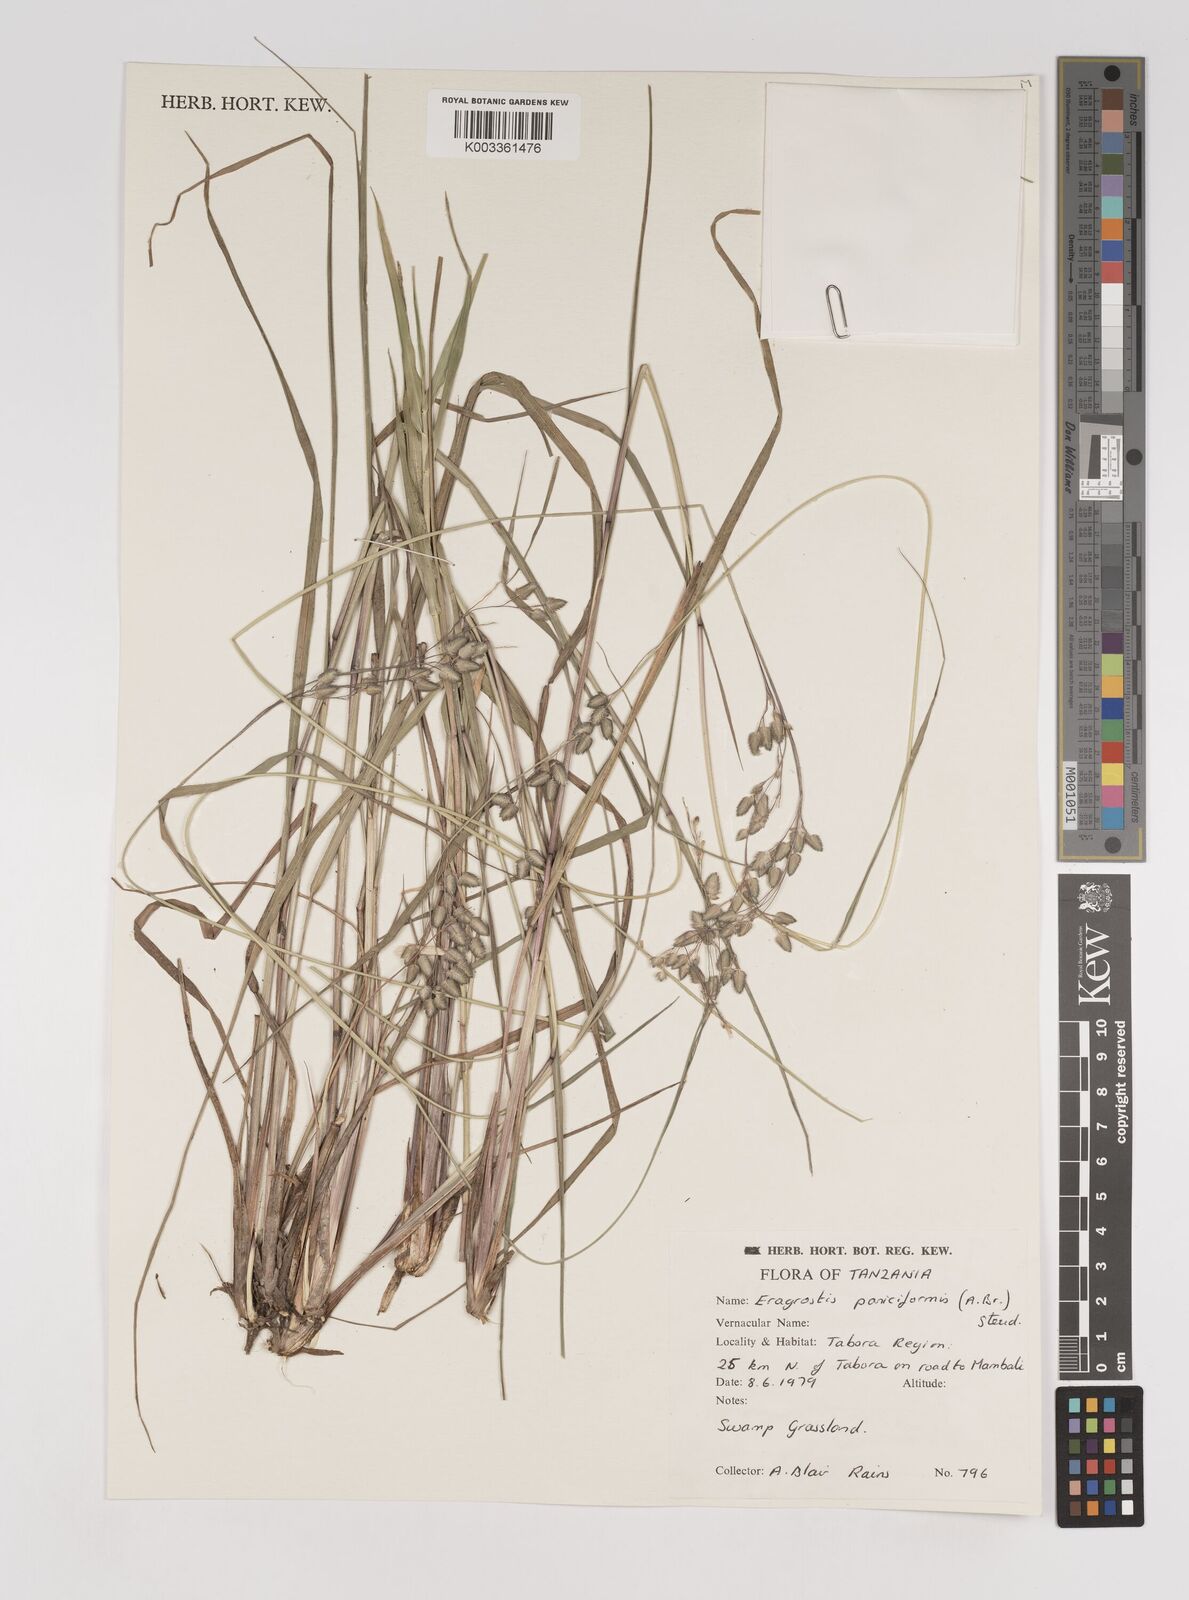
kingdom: Plantae
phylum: Tracheophyta
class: Liliopsida
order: Poales
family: Poaceae
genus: Eragrostis
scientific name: Eragrostis paniciformis
